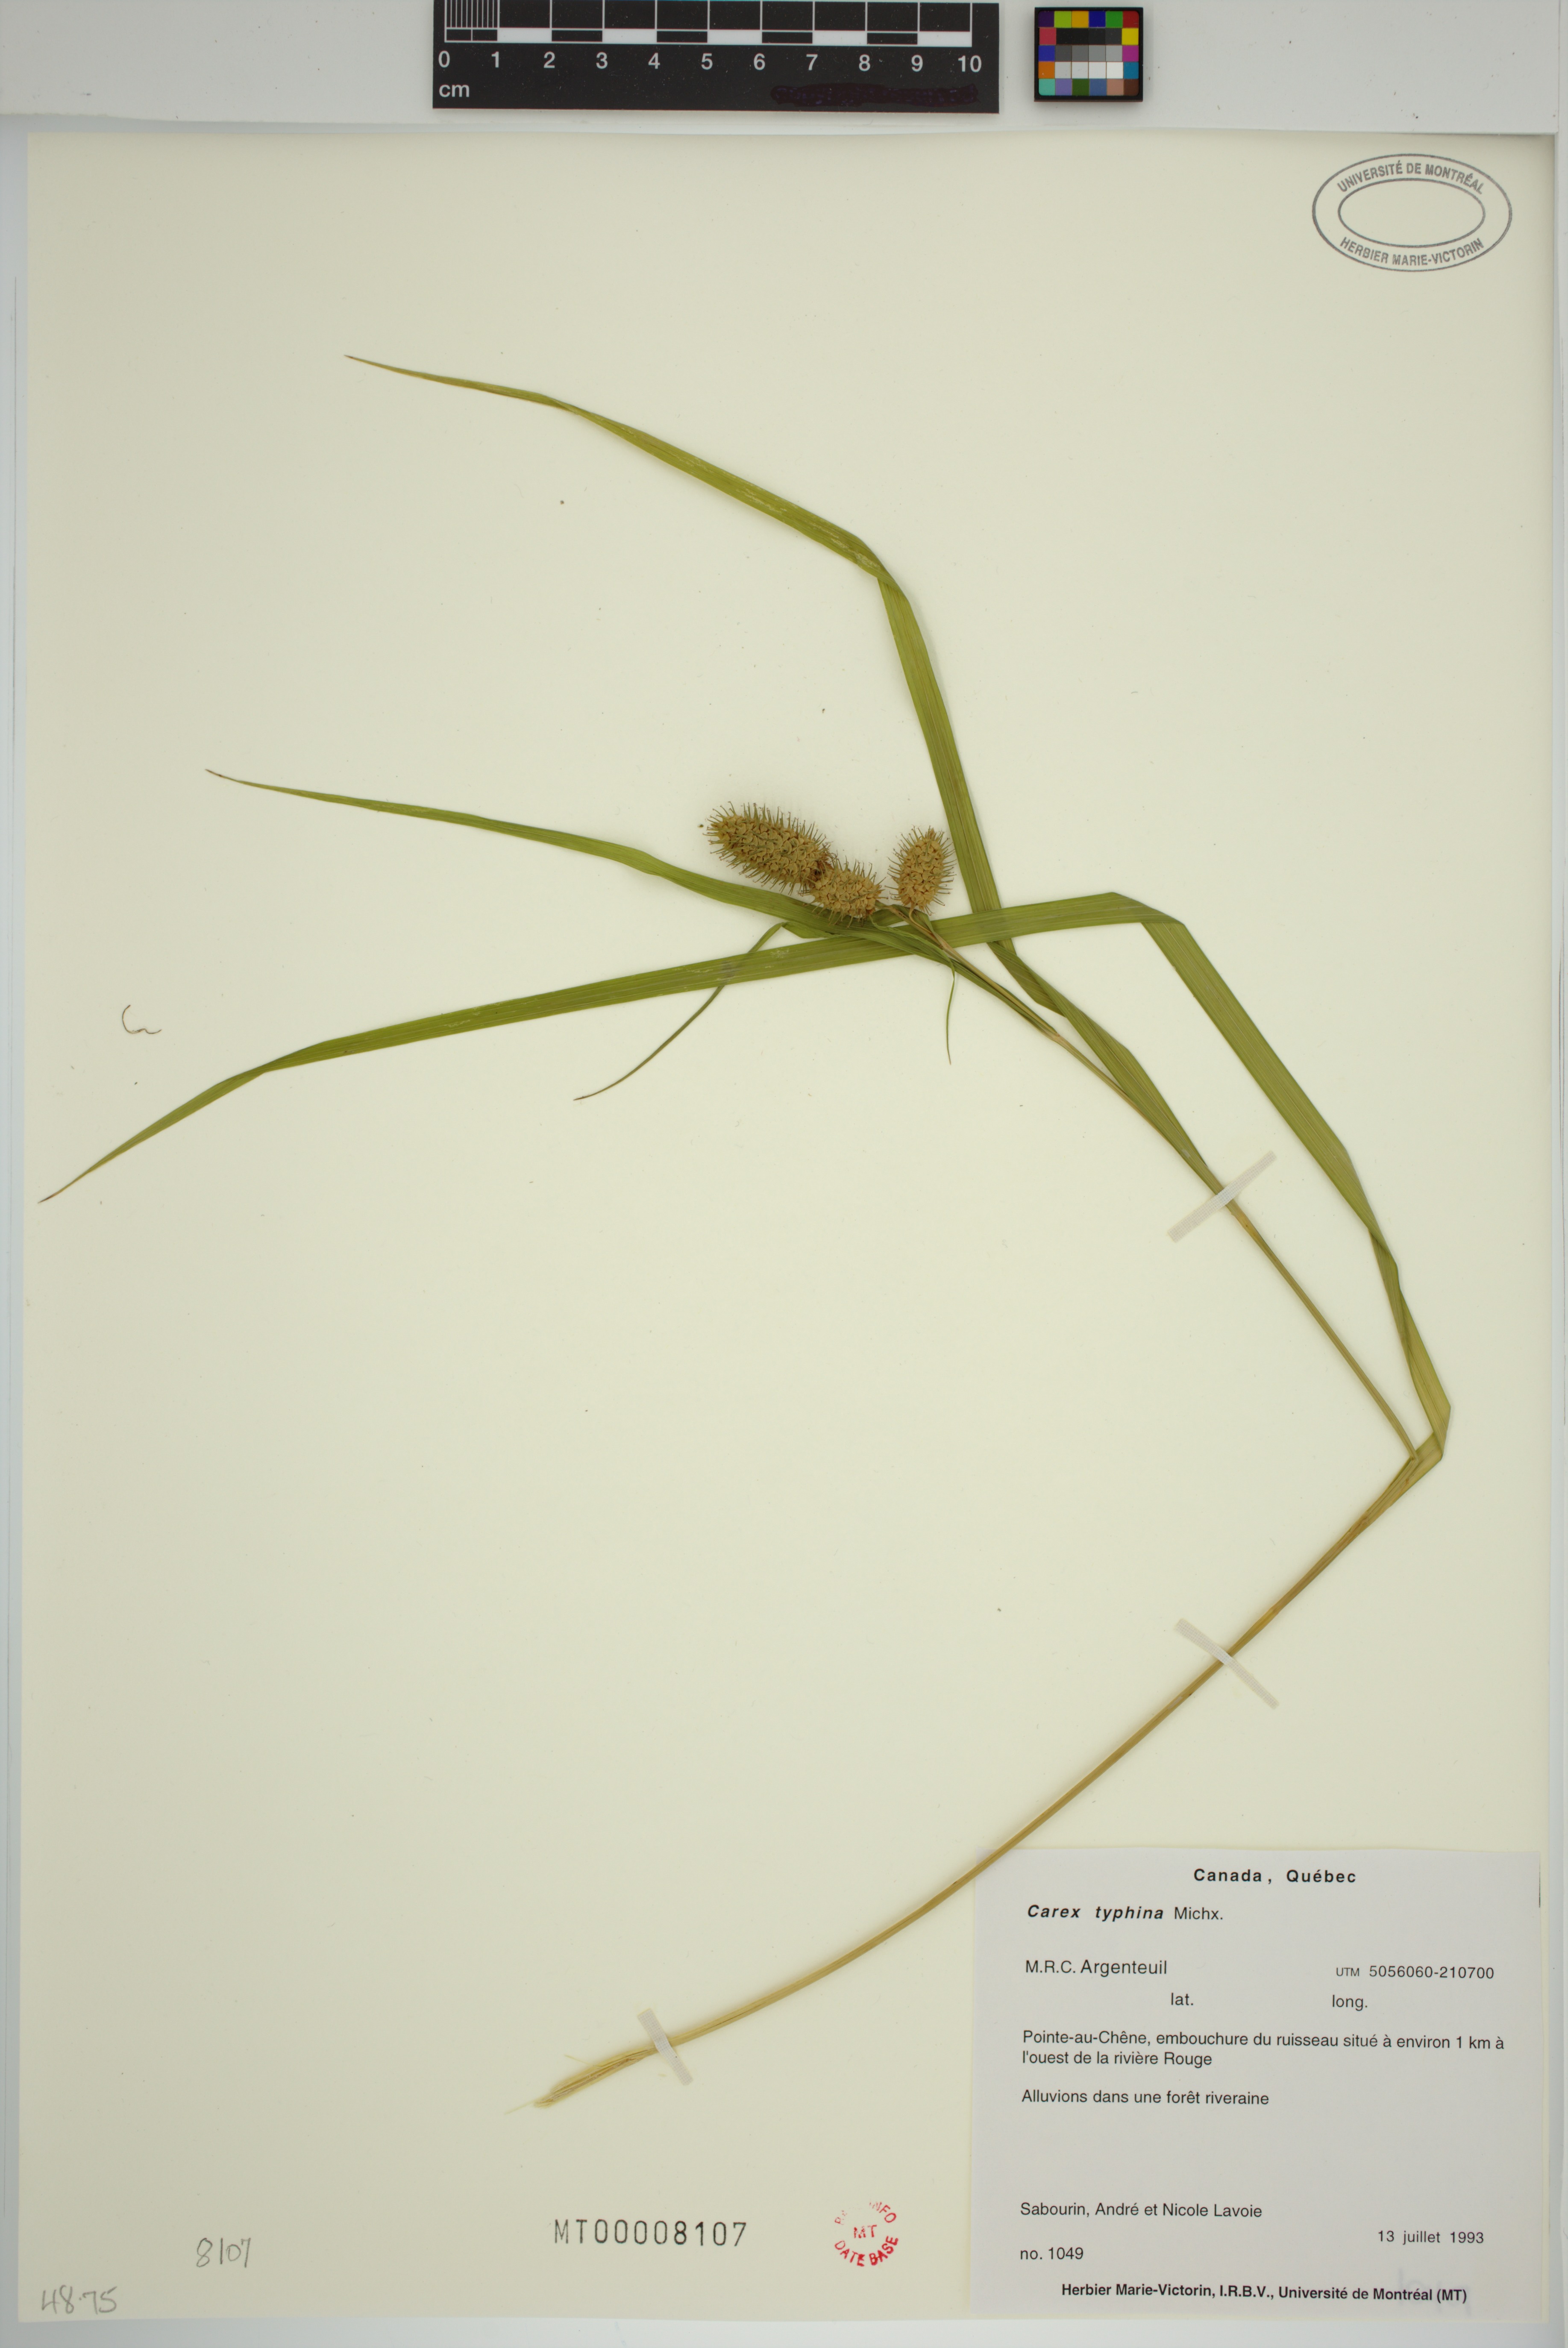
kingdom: Plantae
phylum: Tracheophyta
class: Liliopsida
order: Poales
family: Cyperaceae
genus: Carex
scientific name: Carex typhina
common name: Cattail sedge
